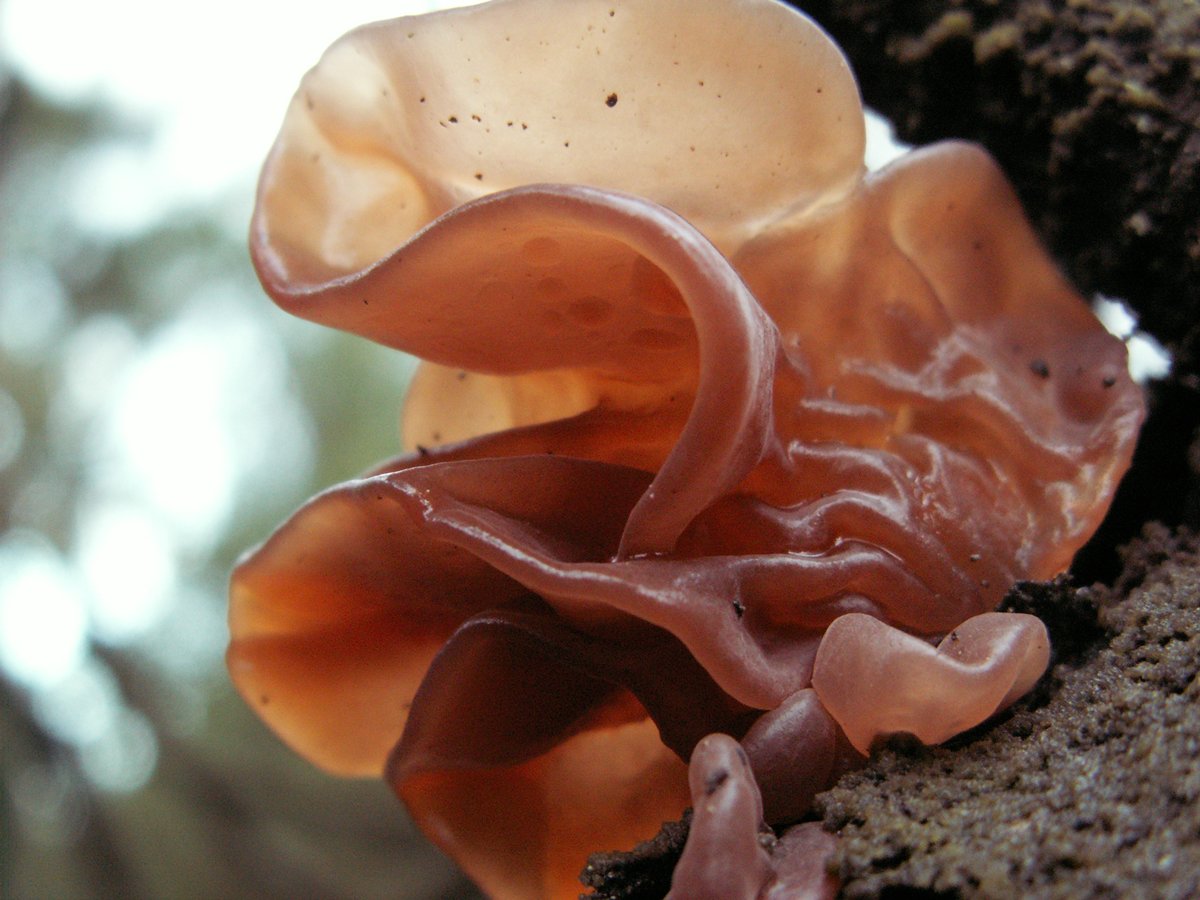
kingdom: Fungi
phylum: Basidiomycota
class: Tremellomycetes
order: Tremellales
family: Tremellaceae
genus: Phaeotremella
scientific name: Phaeotremella foliacea
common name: brun bævresvamp
